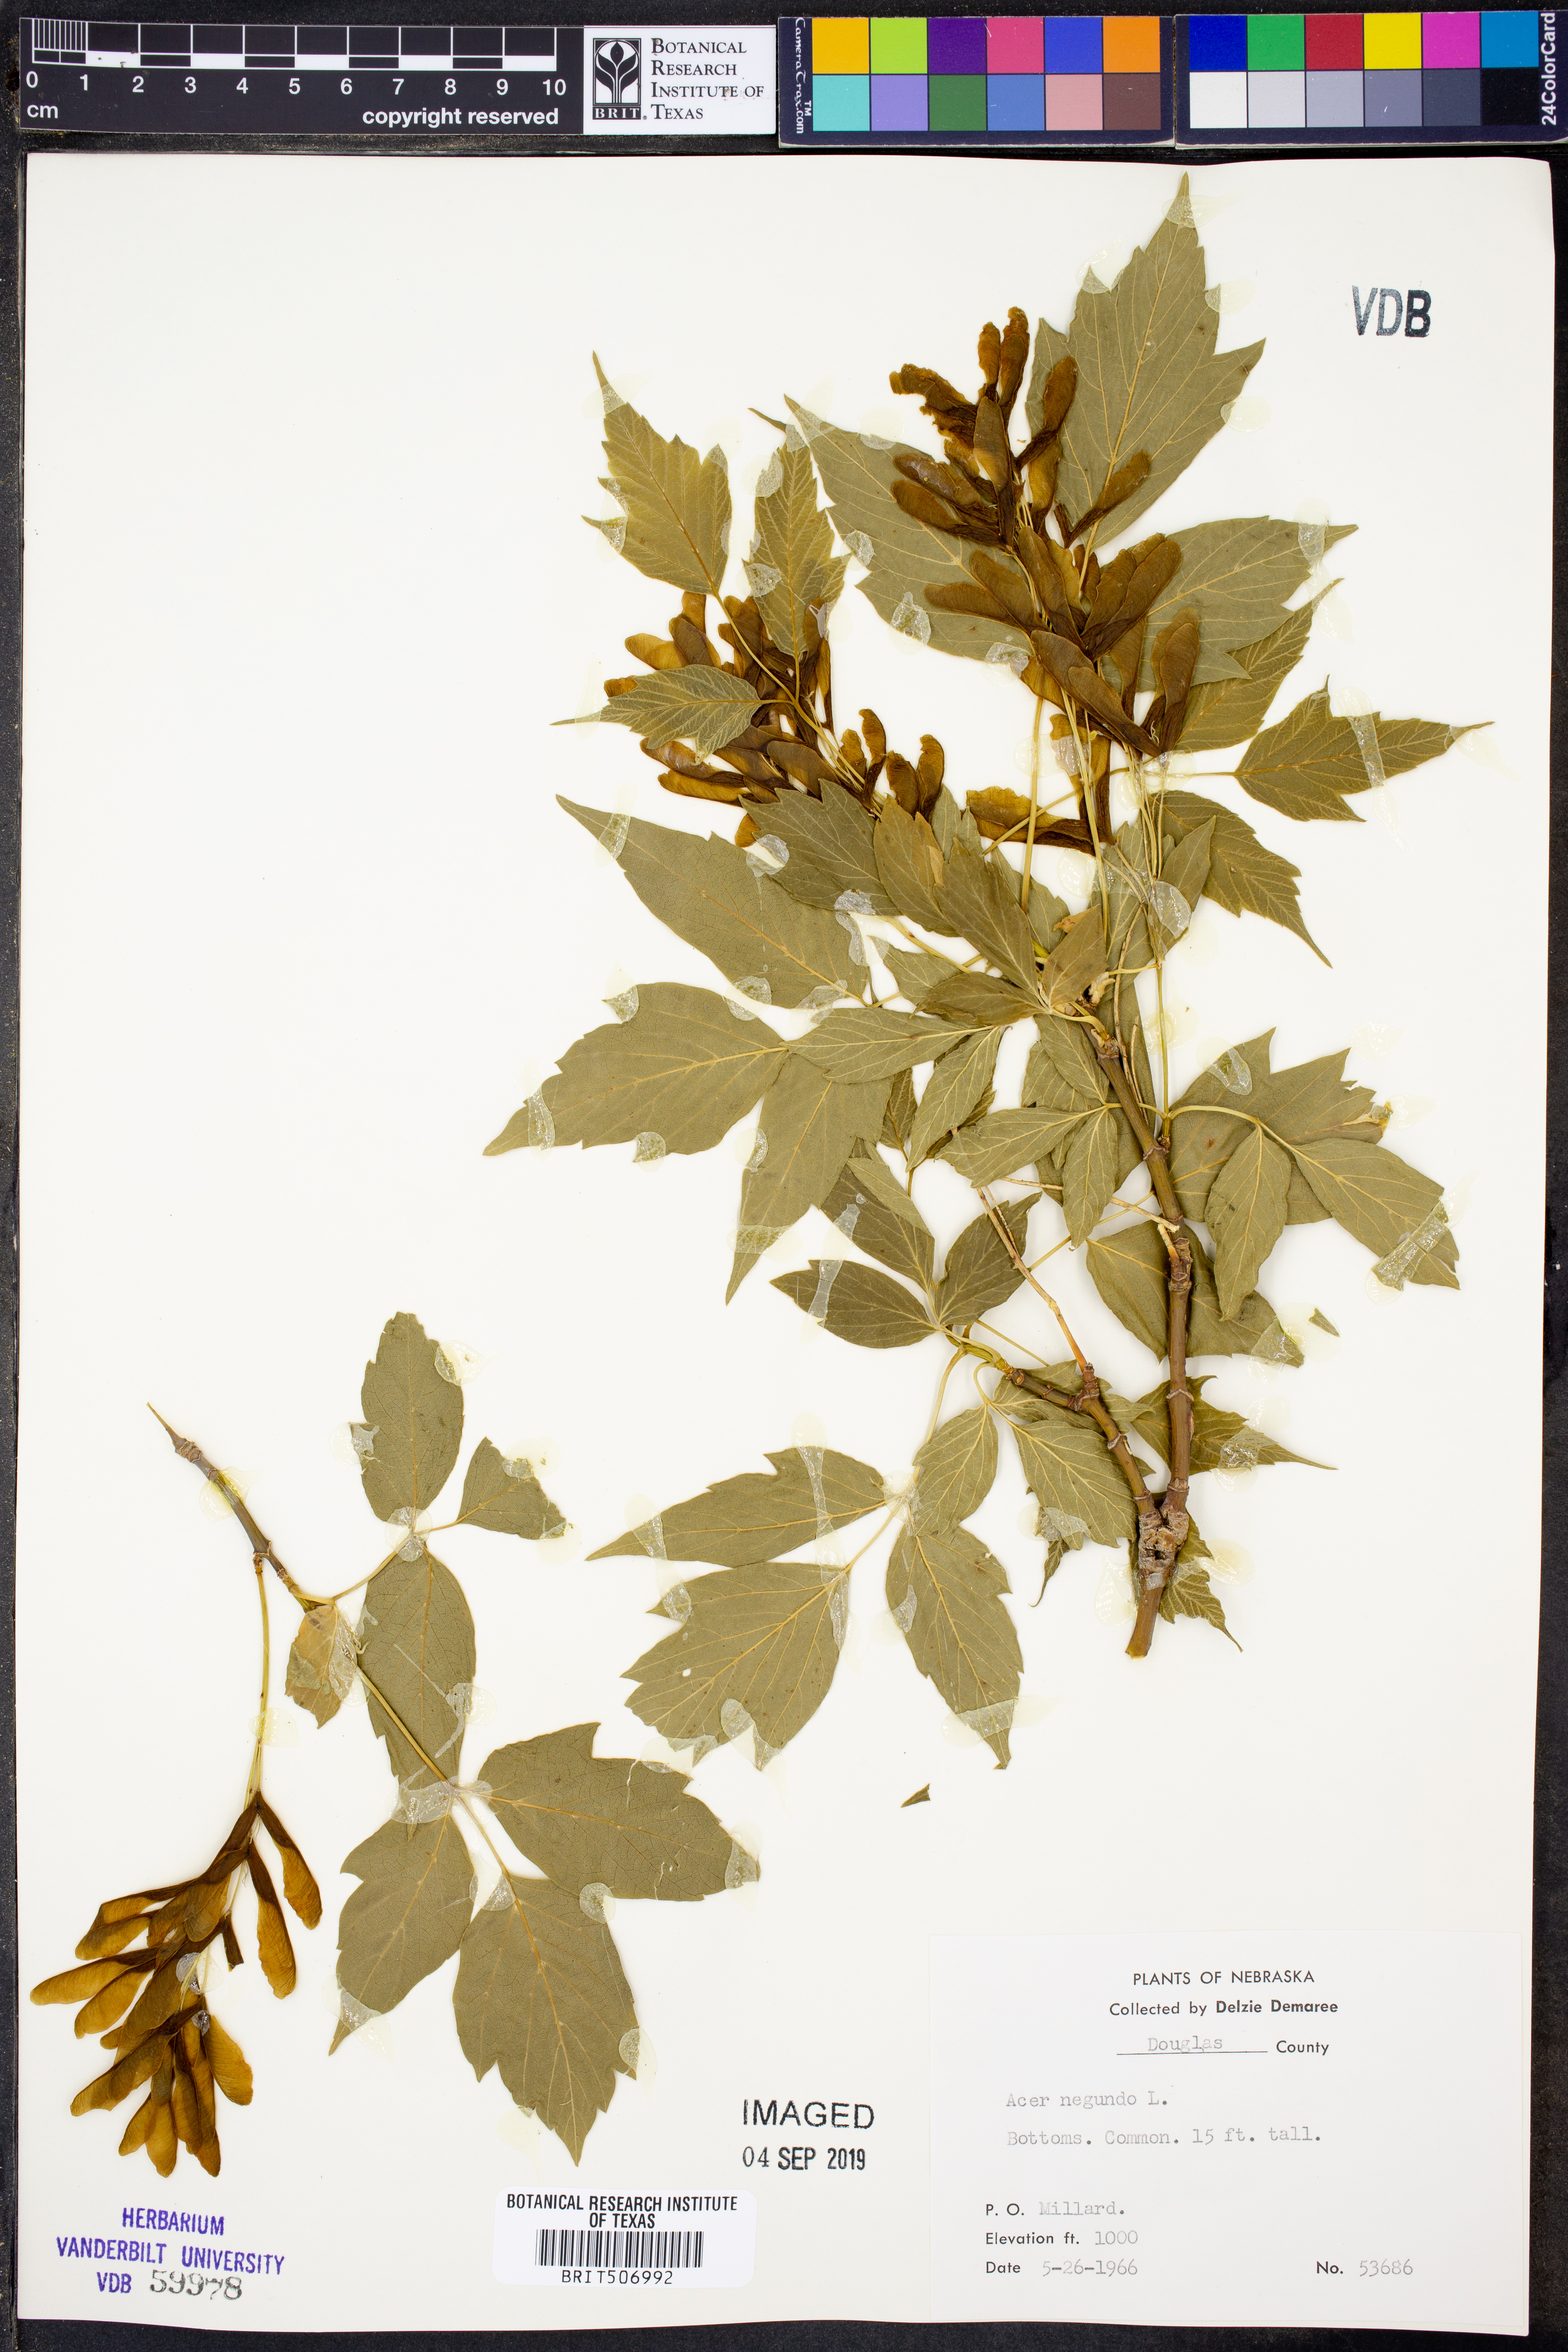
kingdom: Plantae
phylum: Tracheophyta
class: Magnoliopsida
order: Sapindales
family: Sapindaceae
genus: Acer
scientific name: Acer negundo
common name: Ashleaf maple
